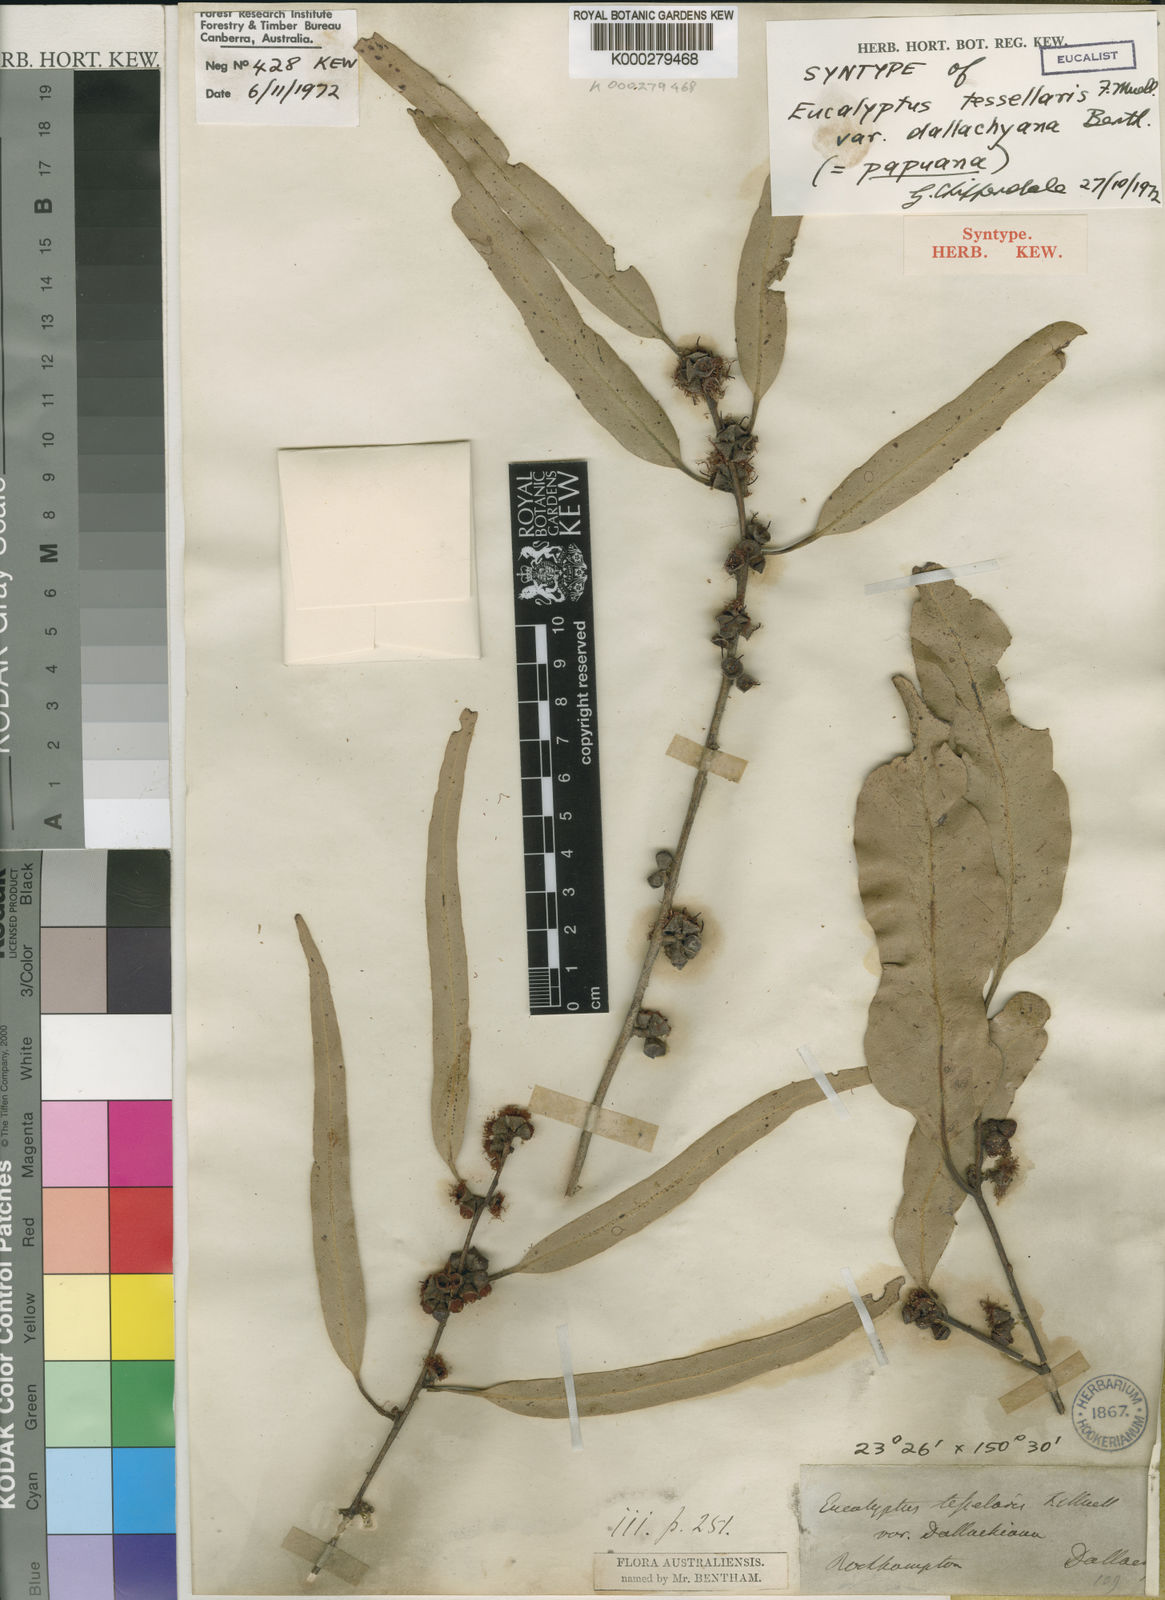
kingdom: Plantae
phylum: Tracheophyta
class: Magnoliopsida
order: Myrtales
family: Myrtaceae
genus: Corymbia
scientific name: Corymbia dallachiana
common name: Dallachy's gum
